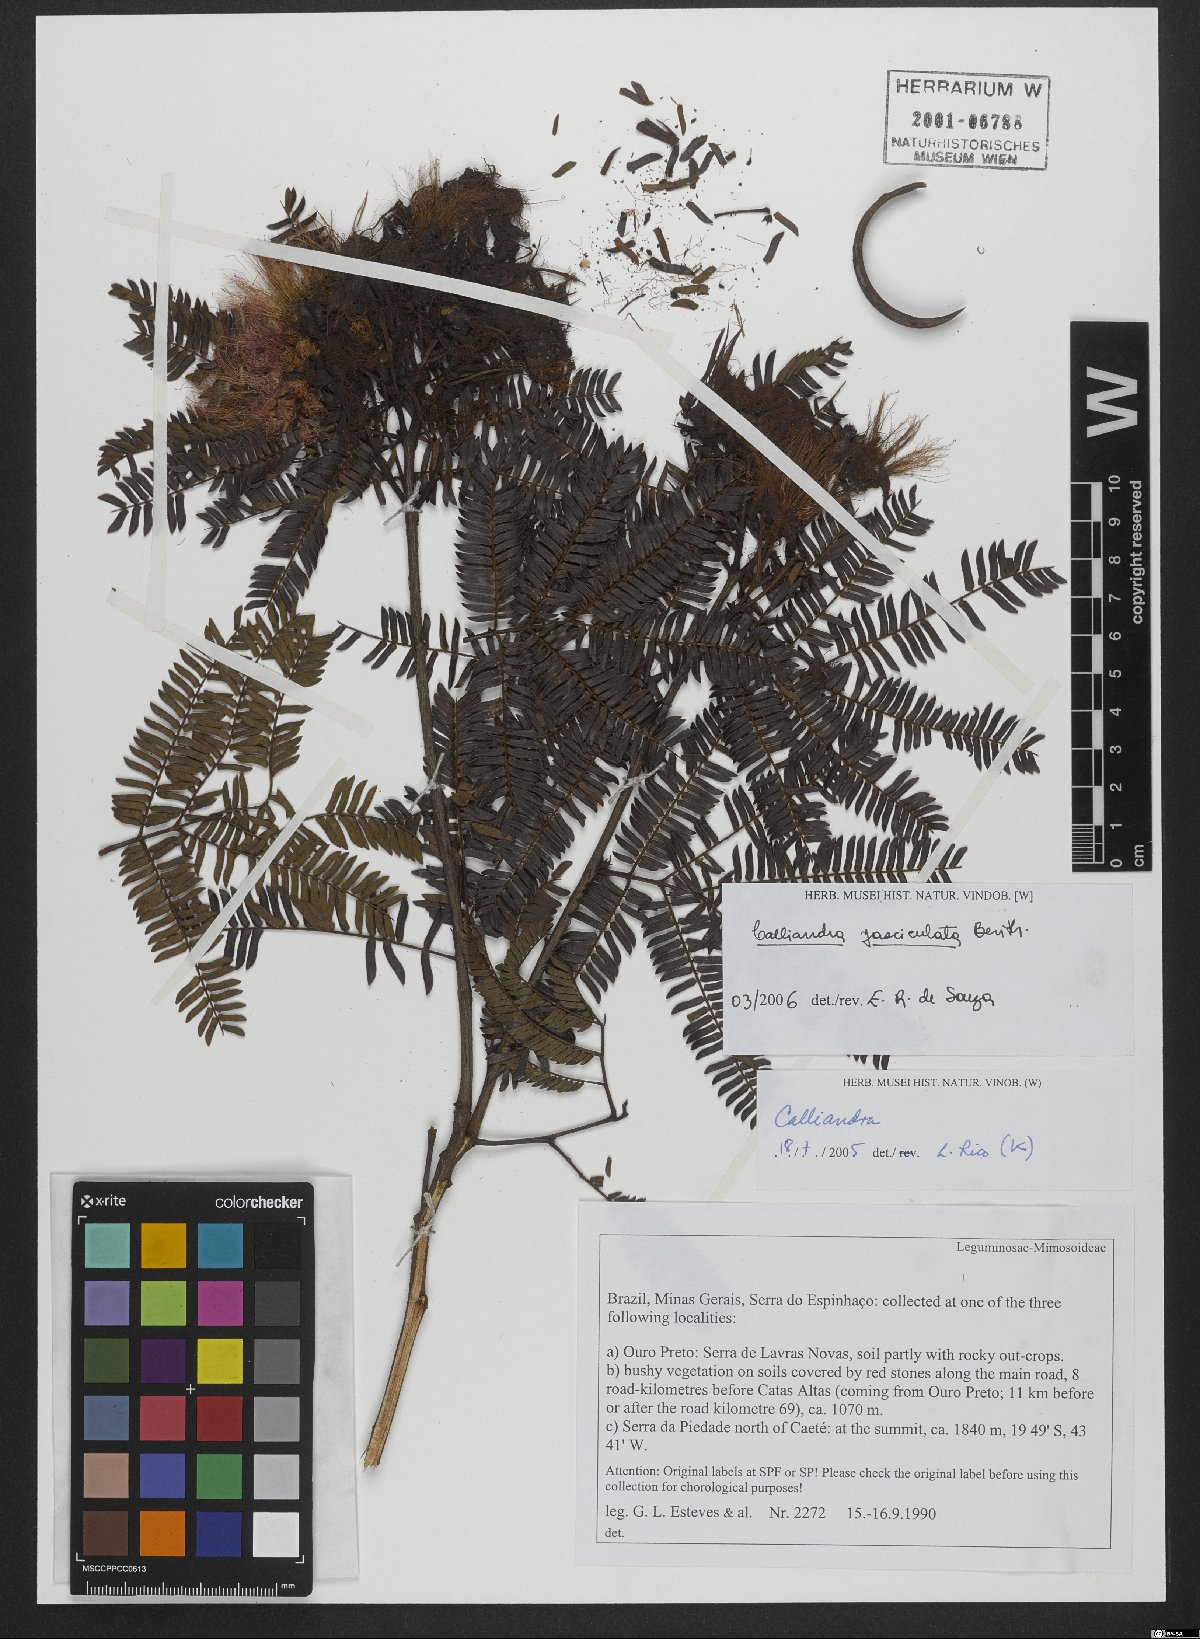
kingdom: Plantae
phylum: Tracheophyta
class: Magnoliopsida
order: Fabales
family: Fabaceae
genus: Calliandra
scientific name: Calliandra fasciculata
